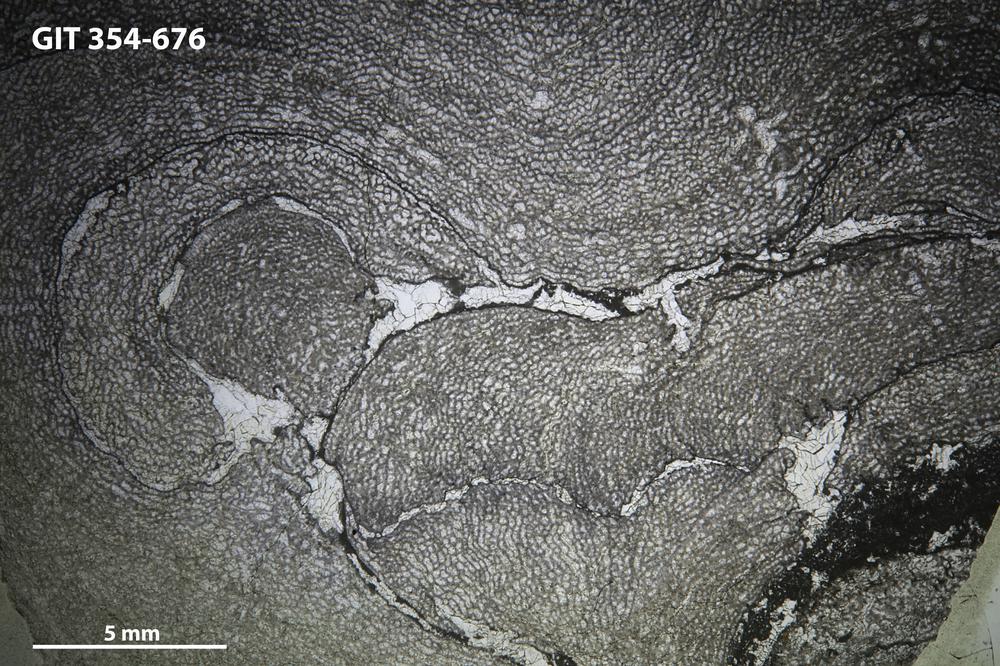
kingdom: Animalia
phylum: Porifera
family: Ecclimadictyidae
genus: Ecclimadictyon
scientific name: Ecclimadictyon
